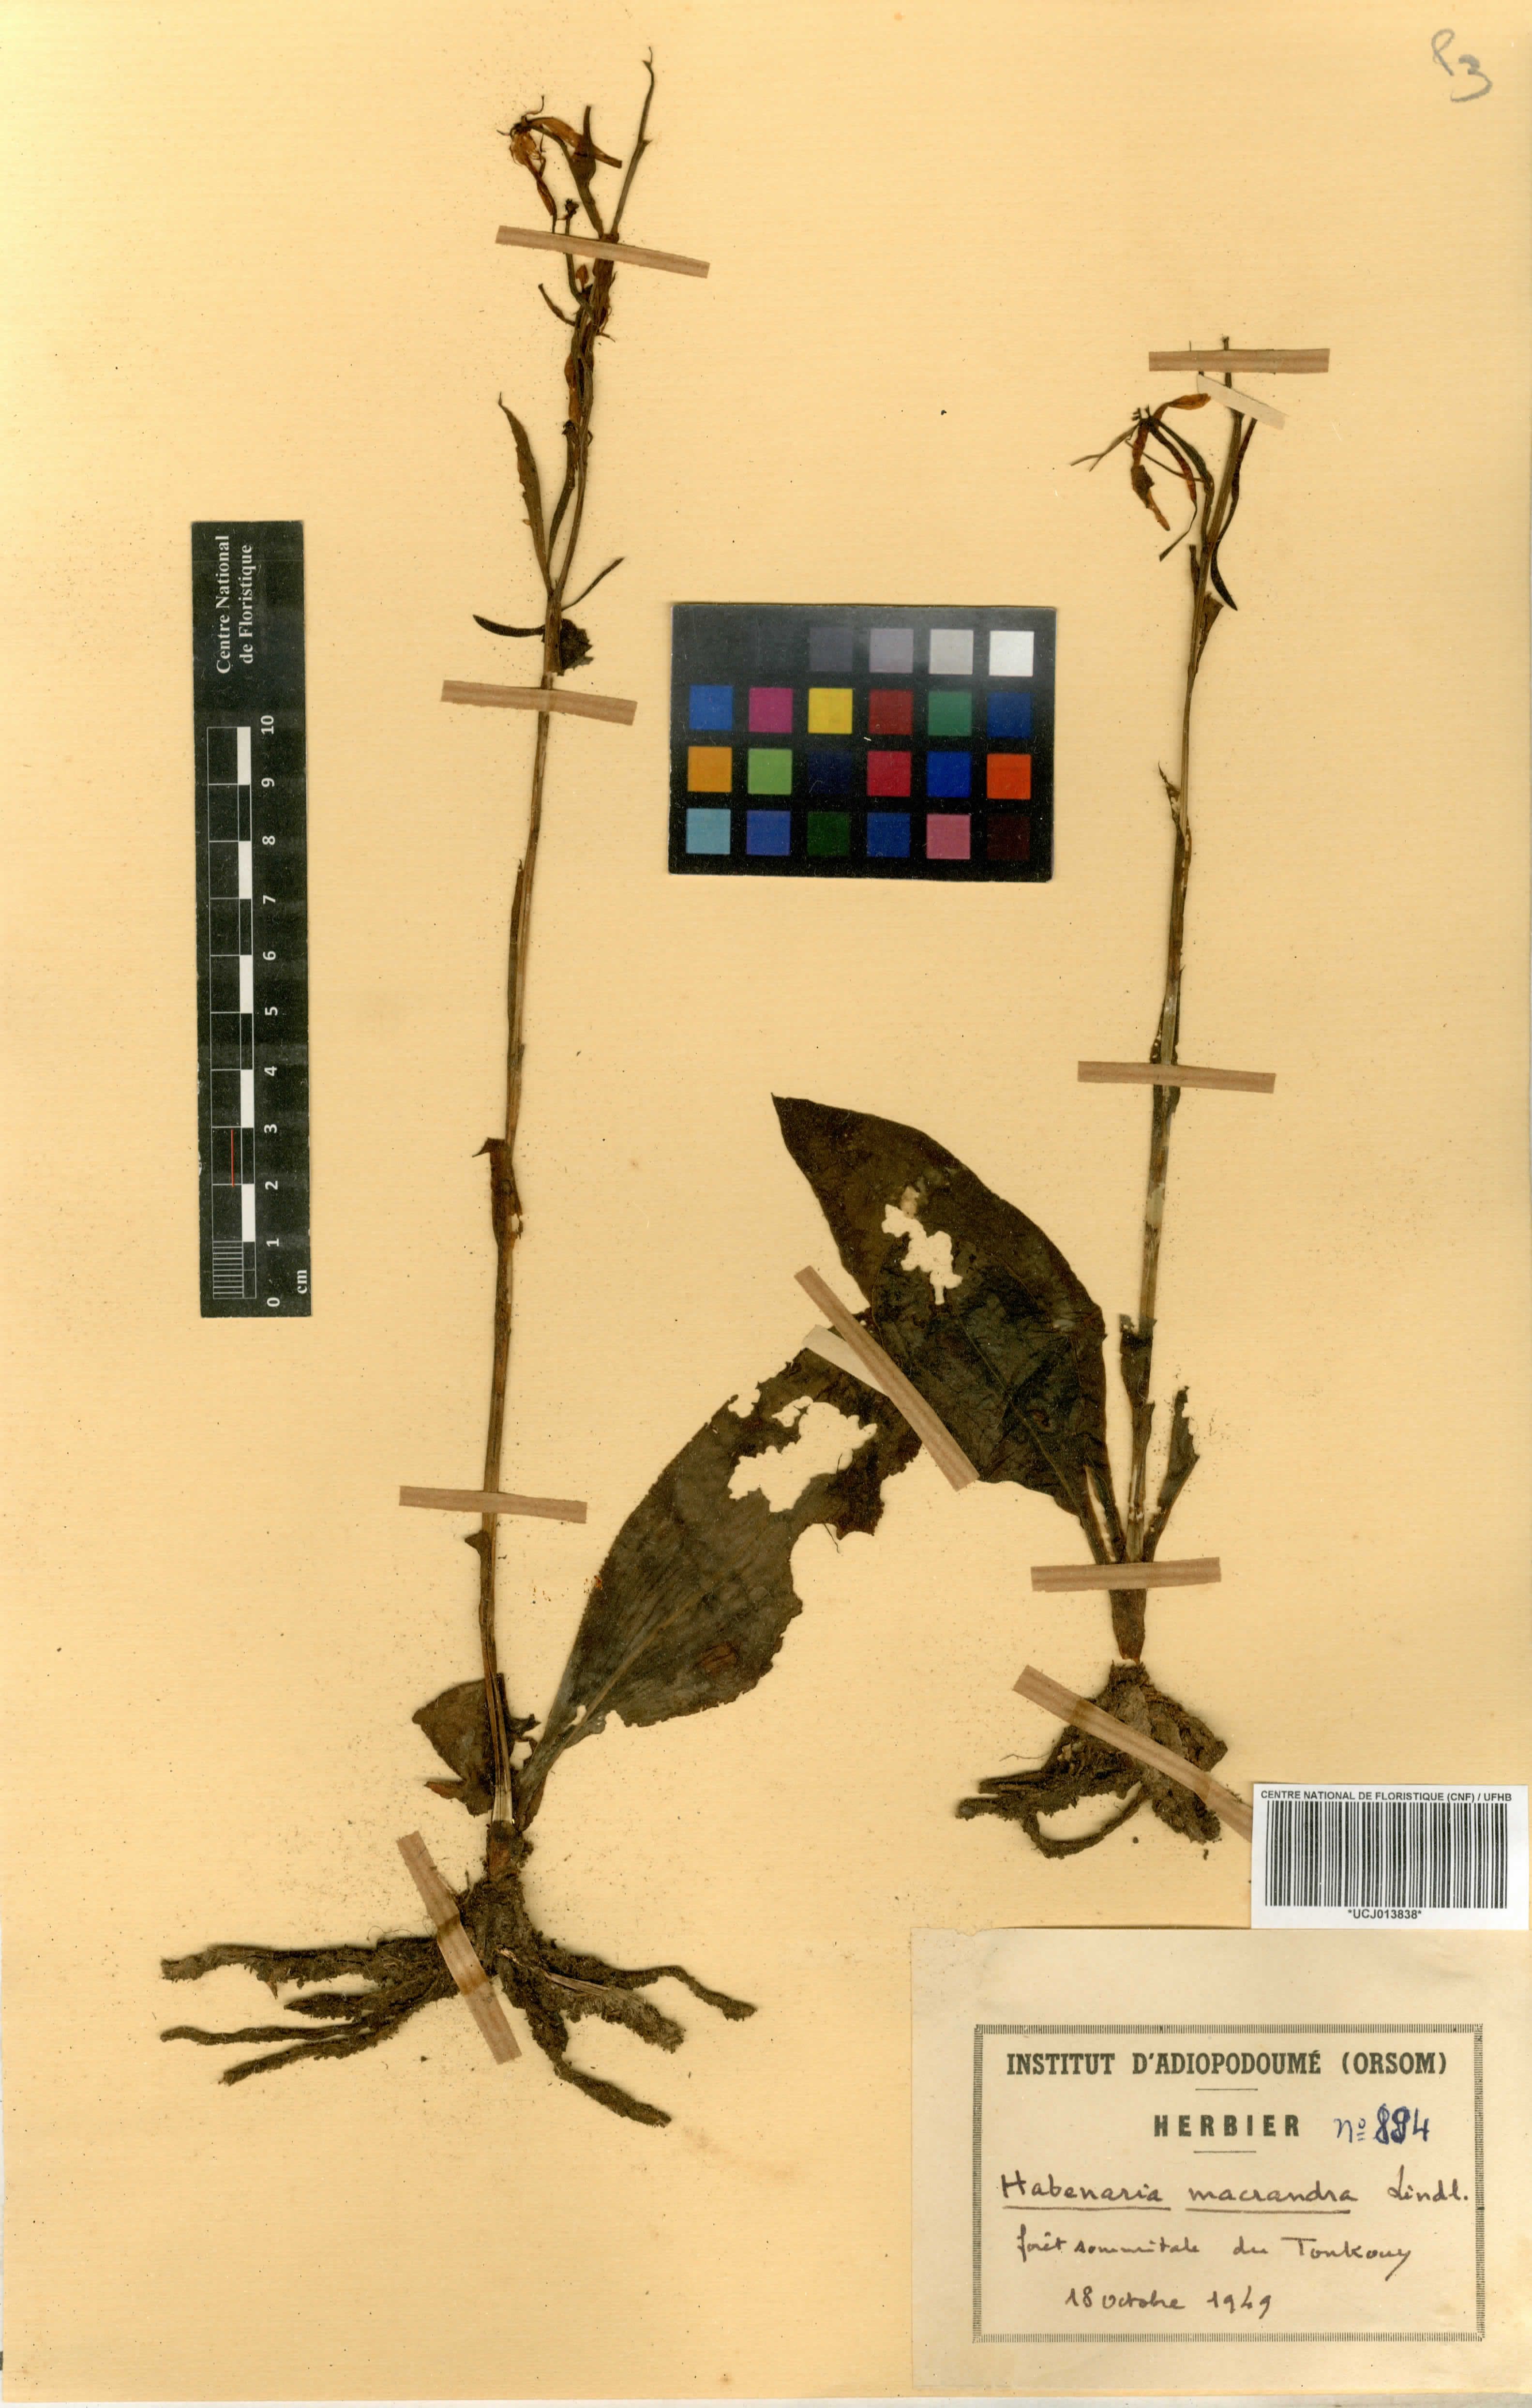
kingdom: Plantae
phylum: Tracheophyta
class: Liliopsida
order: Asparagales
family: Orchidaceae
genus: Habenaria
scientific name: Habenaria macrandra
